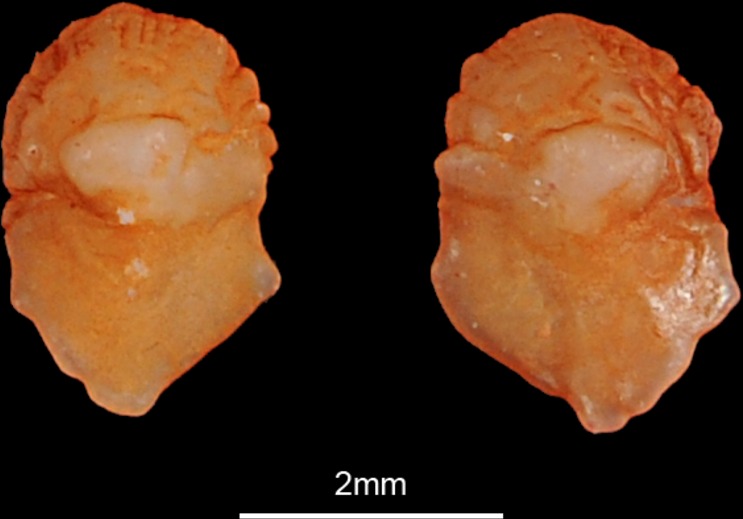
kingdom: Animalia
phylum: Chordata
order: Cypriniformes
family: Cyprinidae
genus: Tinca
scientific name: Tinca tinca
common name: Tench
